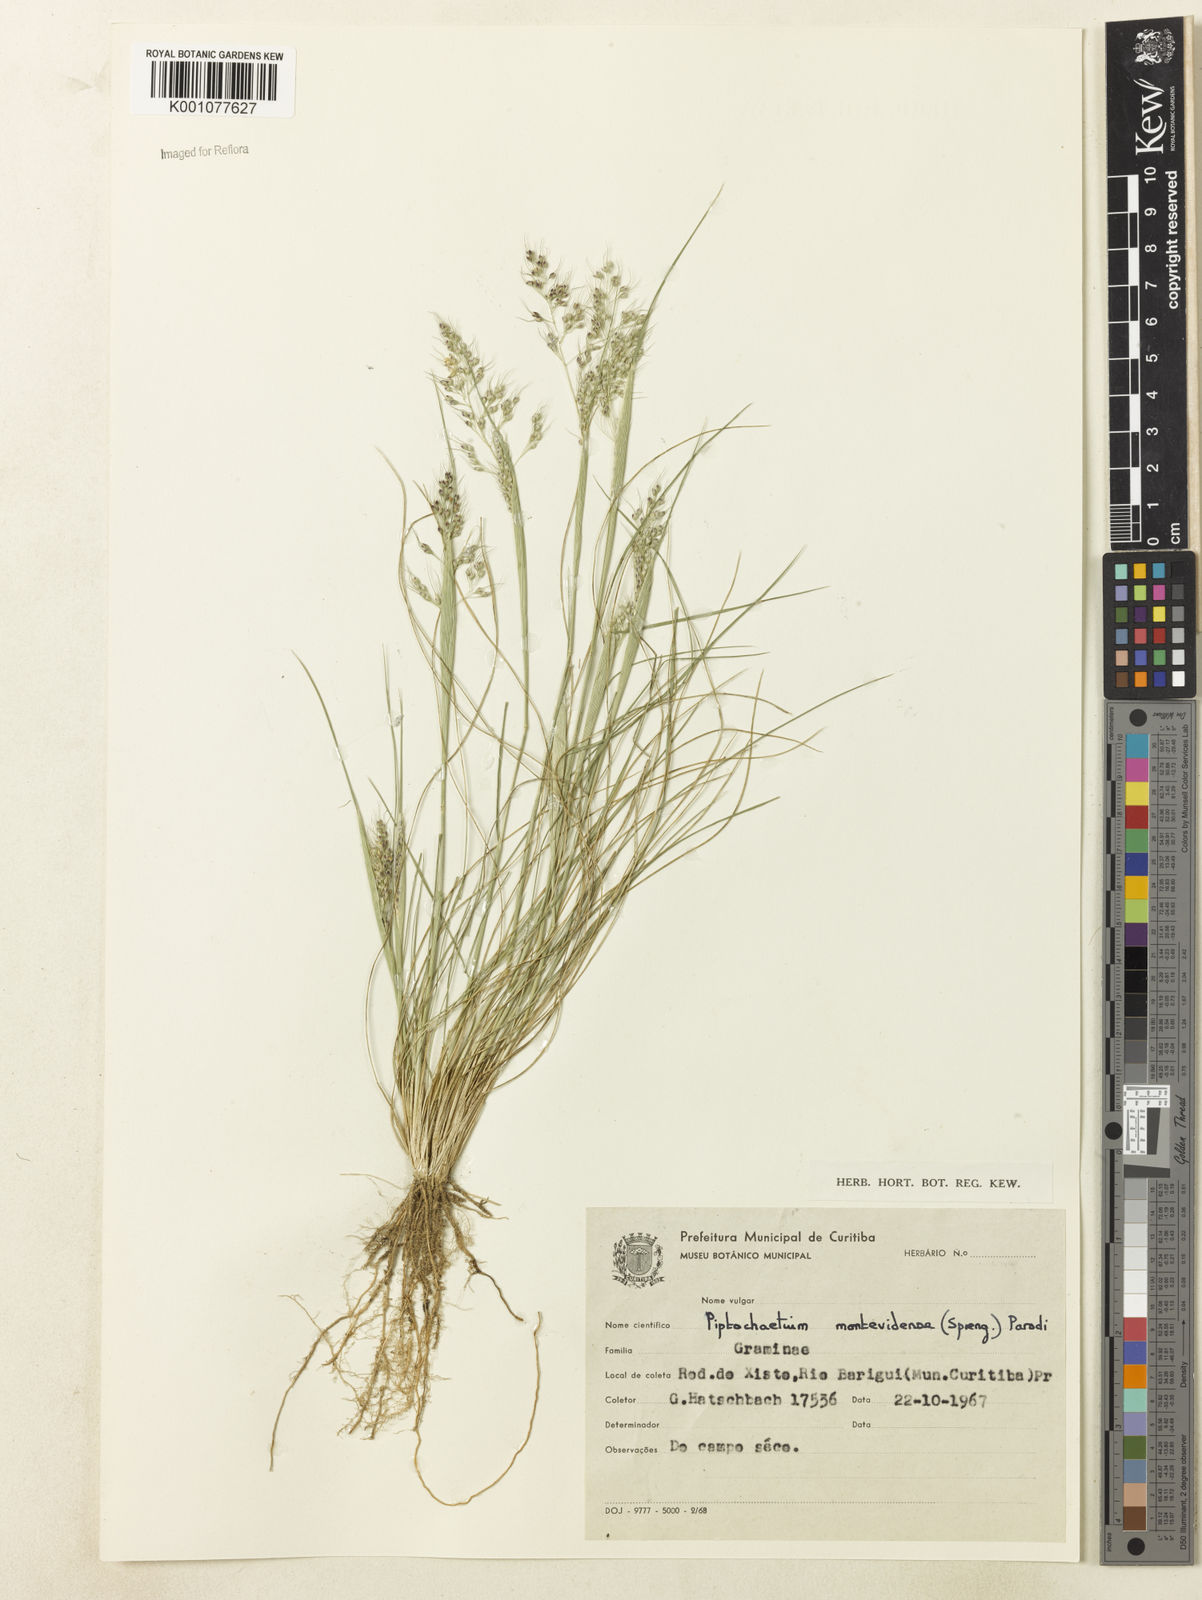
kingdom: Plantae
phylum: Tracheophyta
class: Liliopsida
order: Poales
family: Poaceae
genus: Piptochaetium
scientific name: Piptochaetium montevidense
